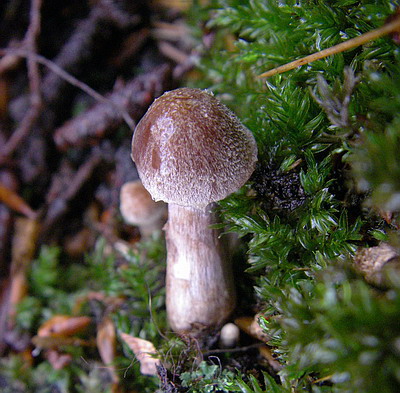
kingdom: Fungi
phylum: Basidiomycota
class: Agaricomycetes
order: Agaricales
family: Cortinariaceae
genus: Cortinarius
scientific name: Cortinarius
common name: pelargonie-slørhat
